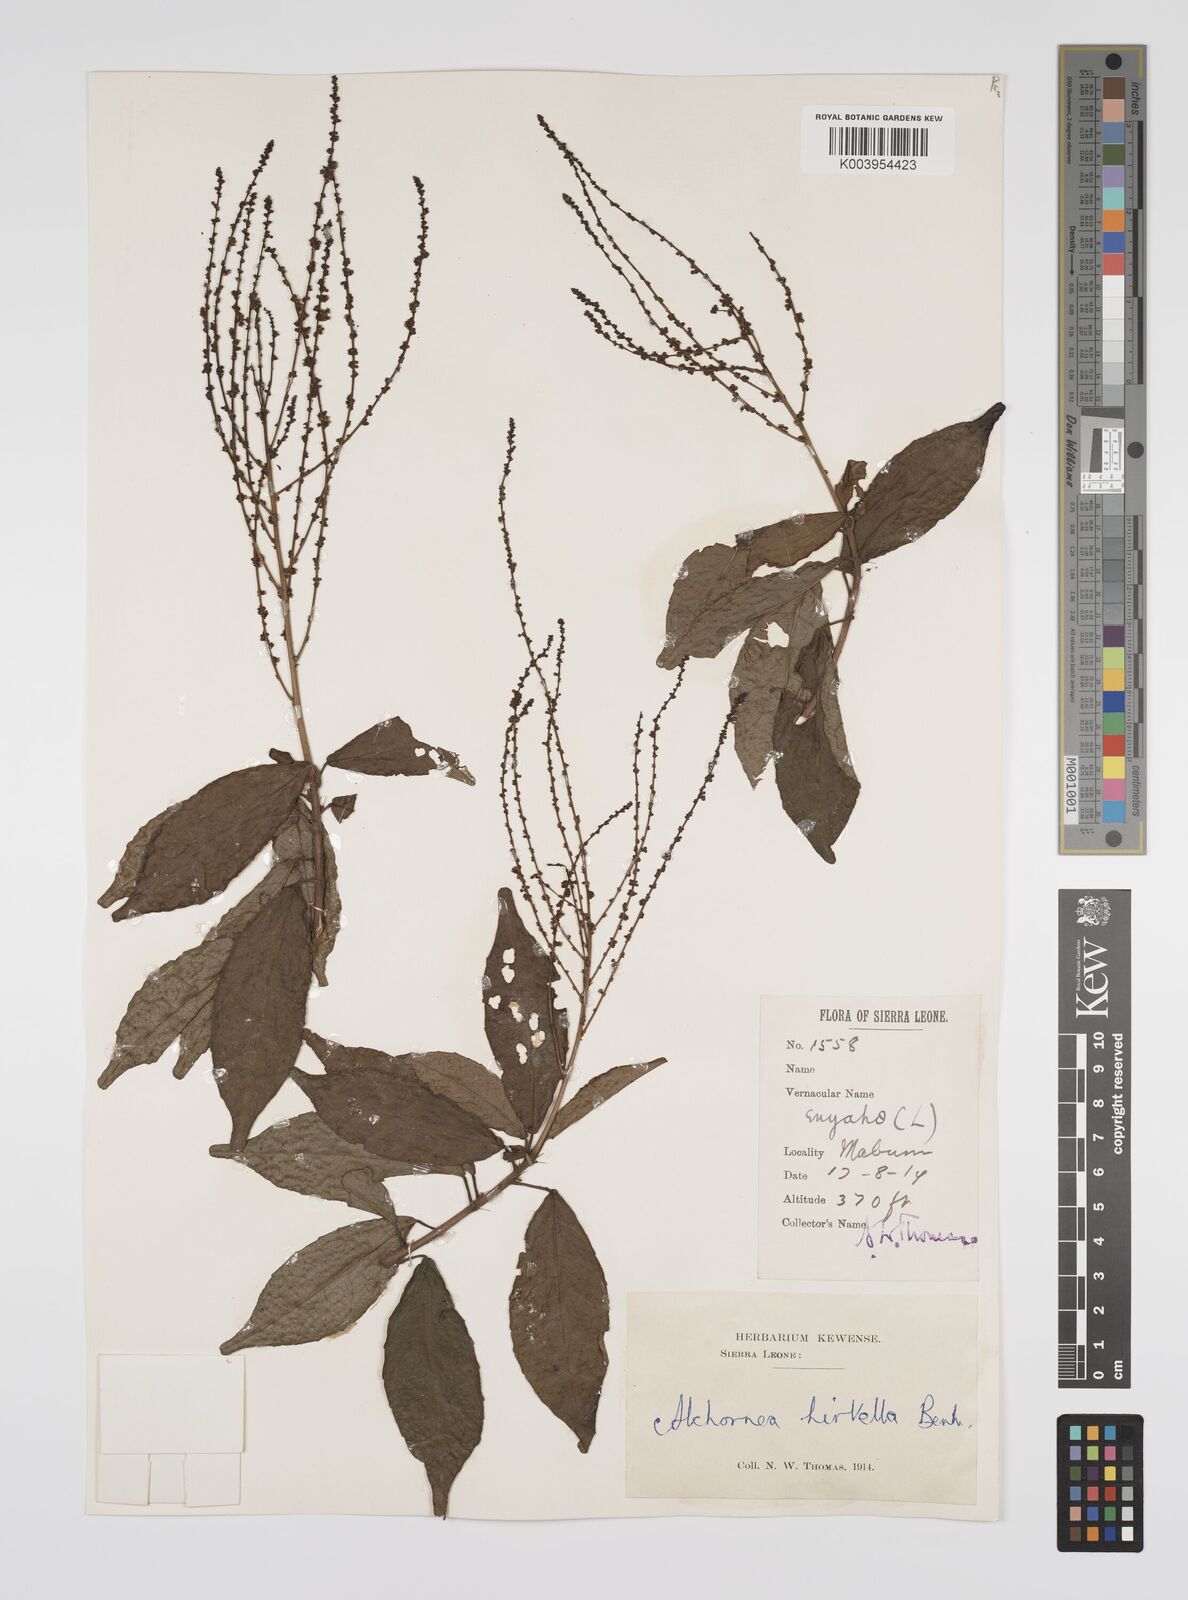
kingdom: Plantae
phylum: Tracheophyta
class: Magnoliopsida
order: Malpighiales
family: Euphorbiaceae
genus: Alchornea
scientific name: Alchornea hirtella
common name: Forest bead-string
